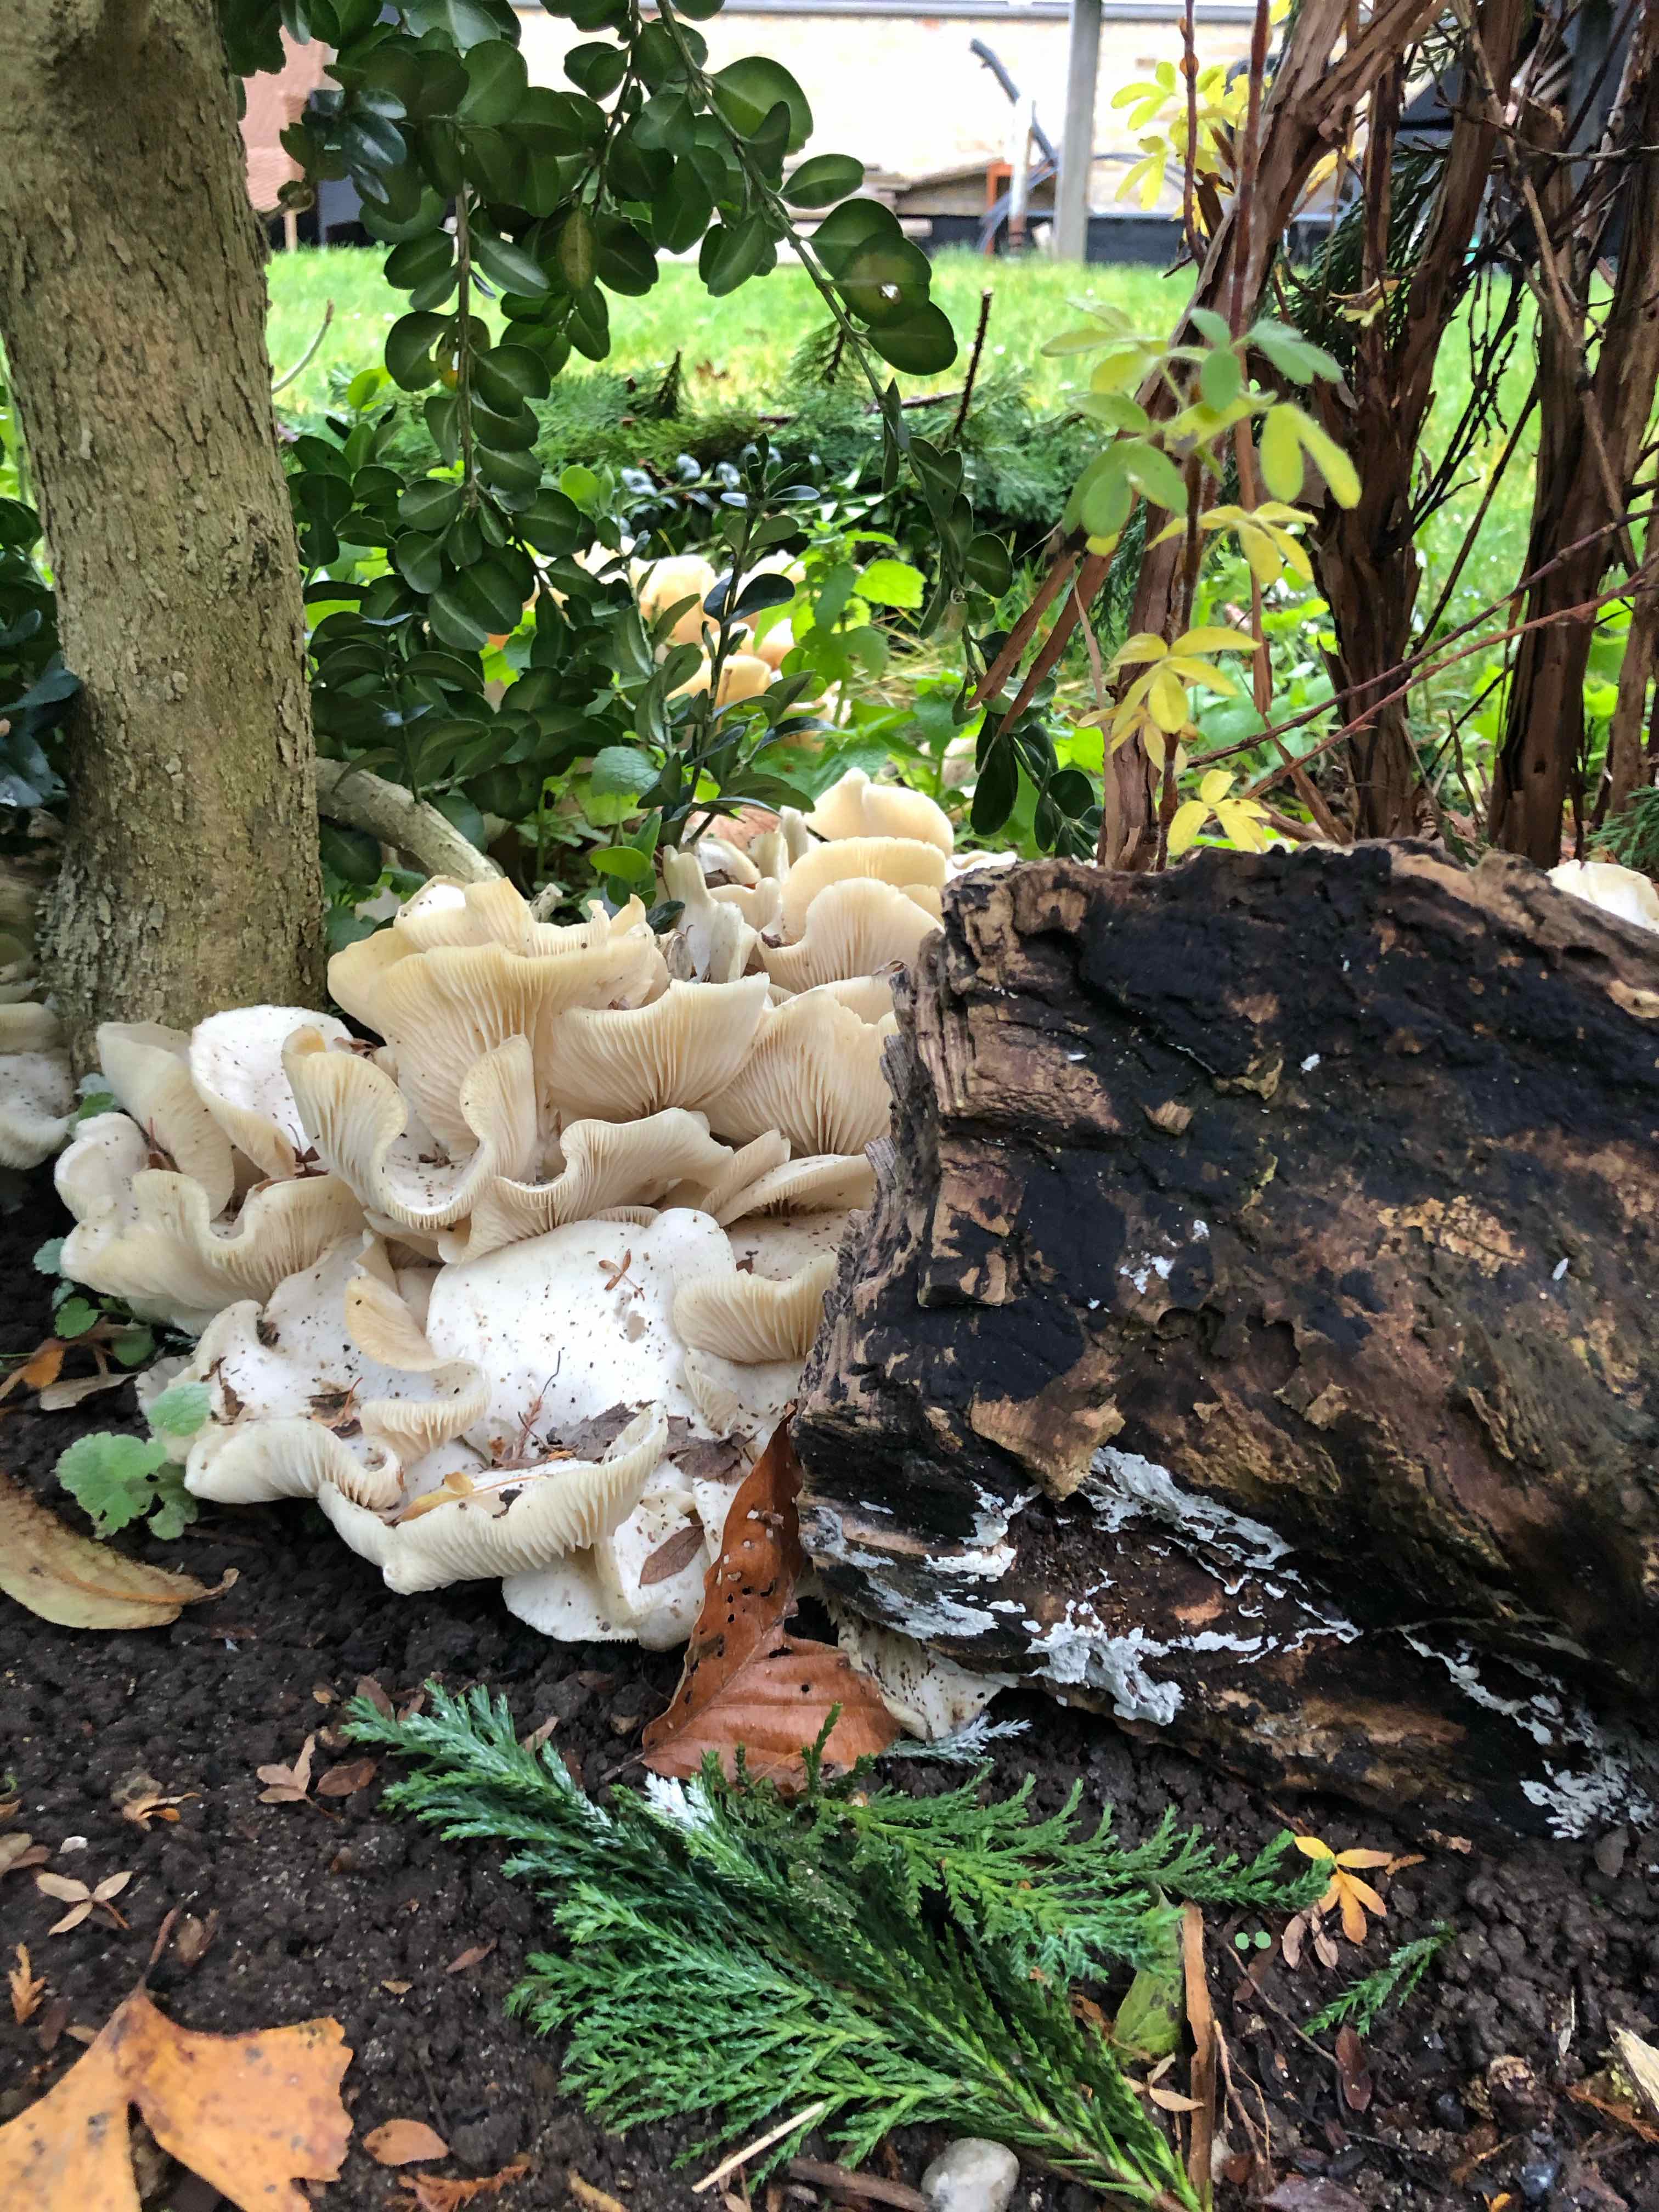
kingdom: Fungi
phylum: Basidiomycota
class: Agaricomycetes
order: Agaricales
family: Tricholomataceae
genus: Leucocybe
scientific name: Leucocybe connata
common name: knippe-tragthat
